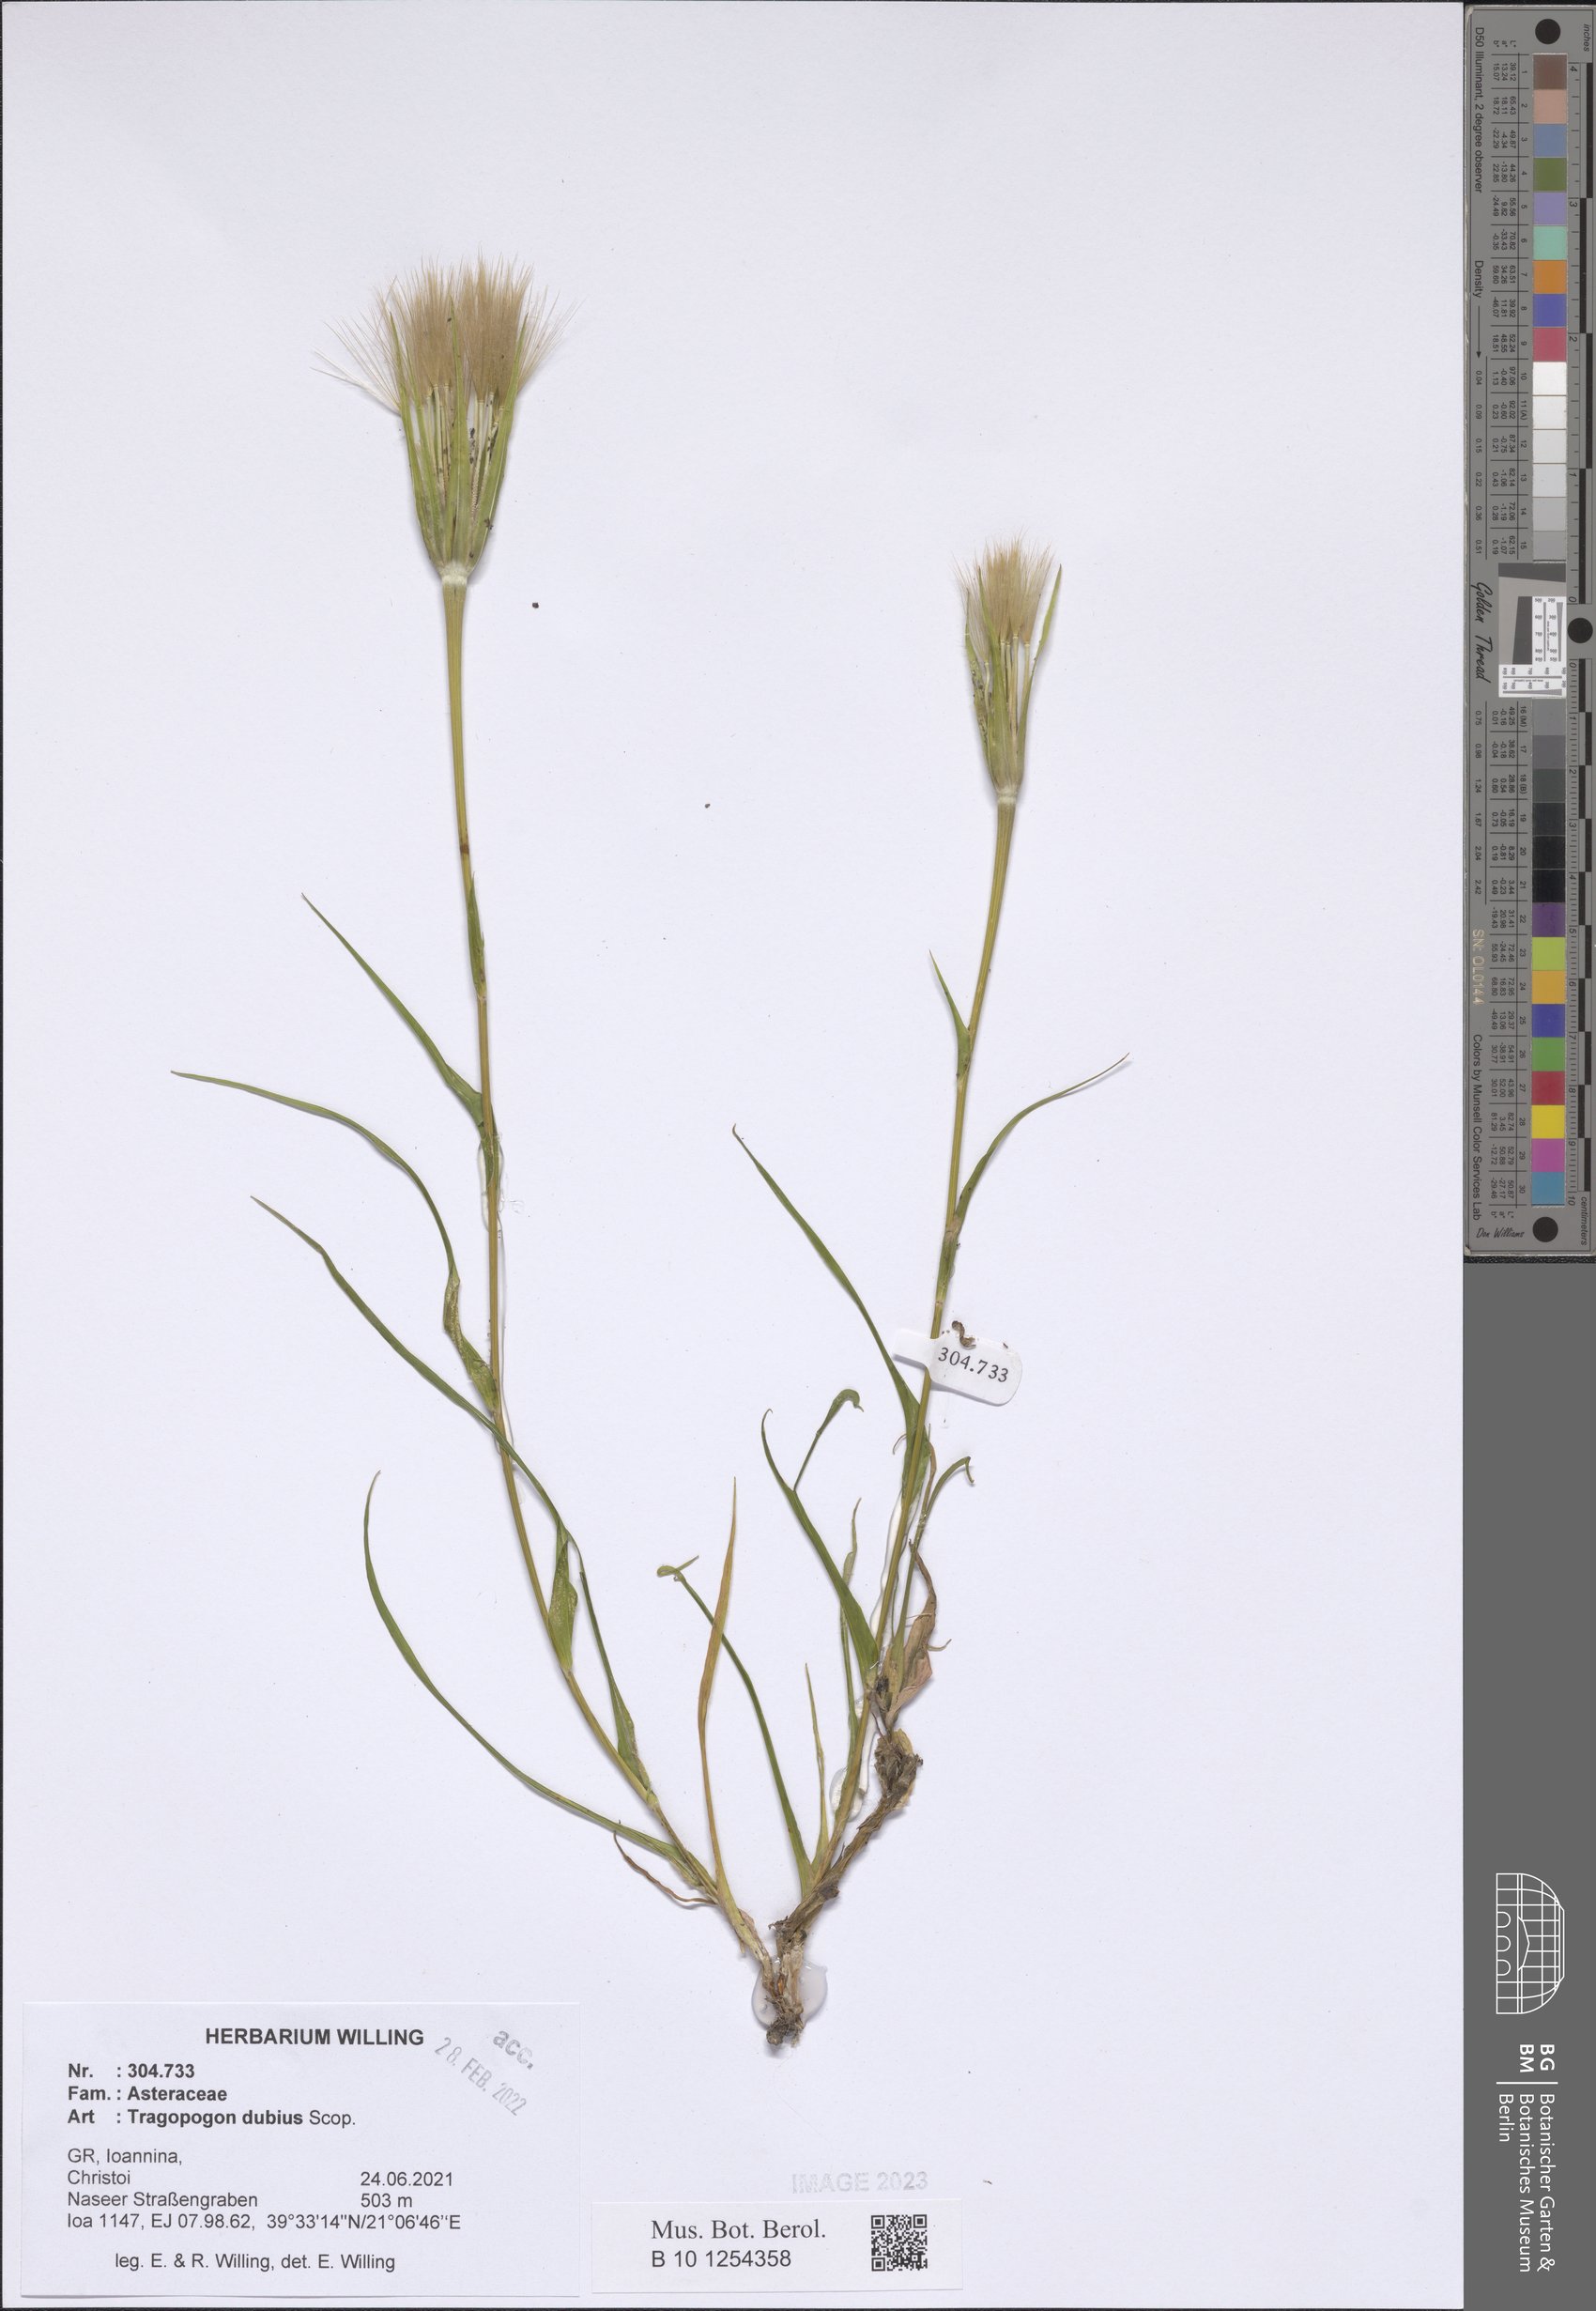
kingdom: Plantae
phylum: Tracheophyta
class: Magnoliopsida
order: Asterales
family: Asteraceae
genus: Tragopogon
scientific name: Tragopogon dubius
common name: Yellow salsify
